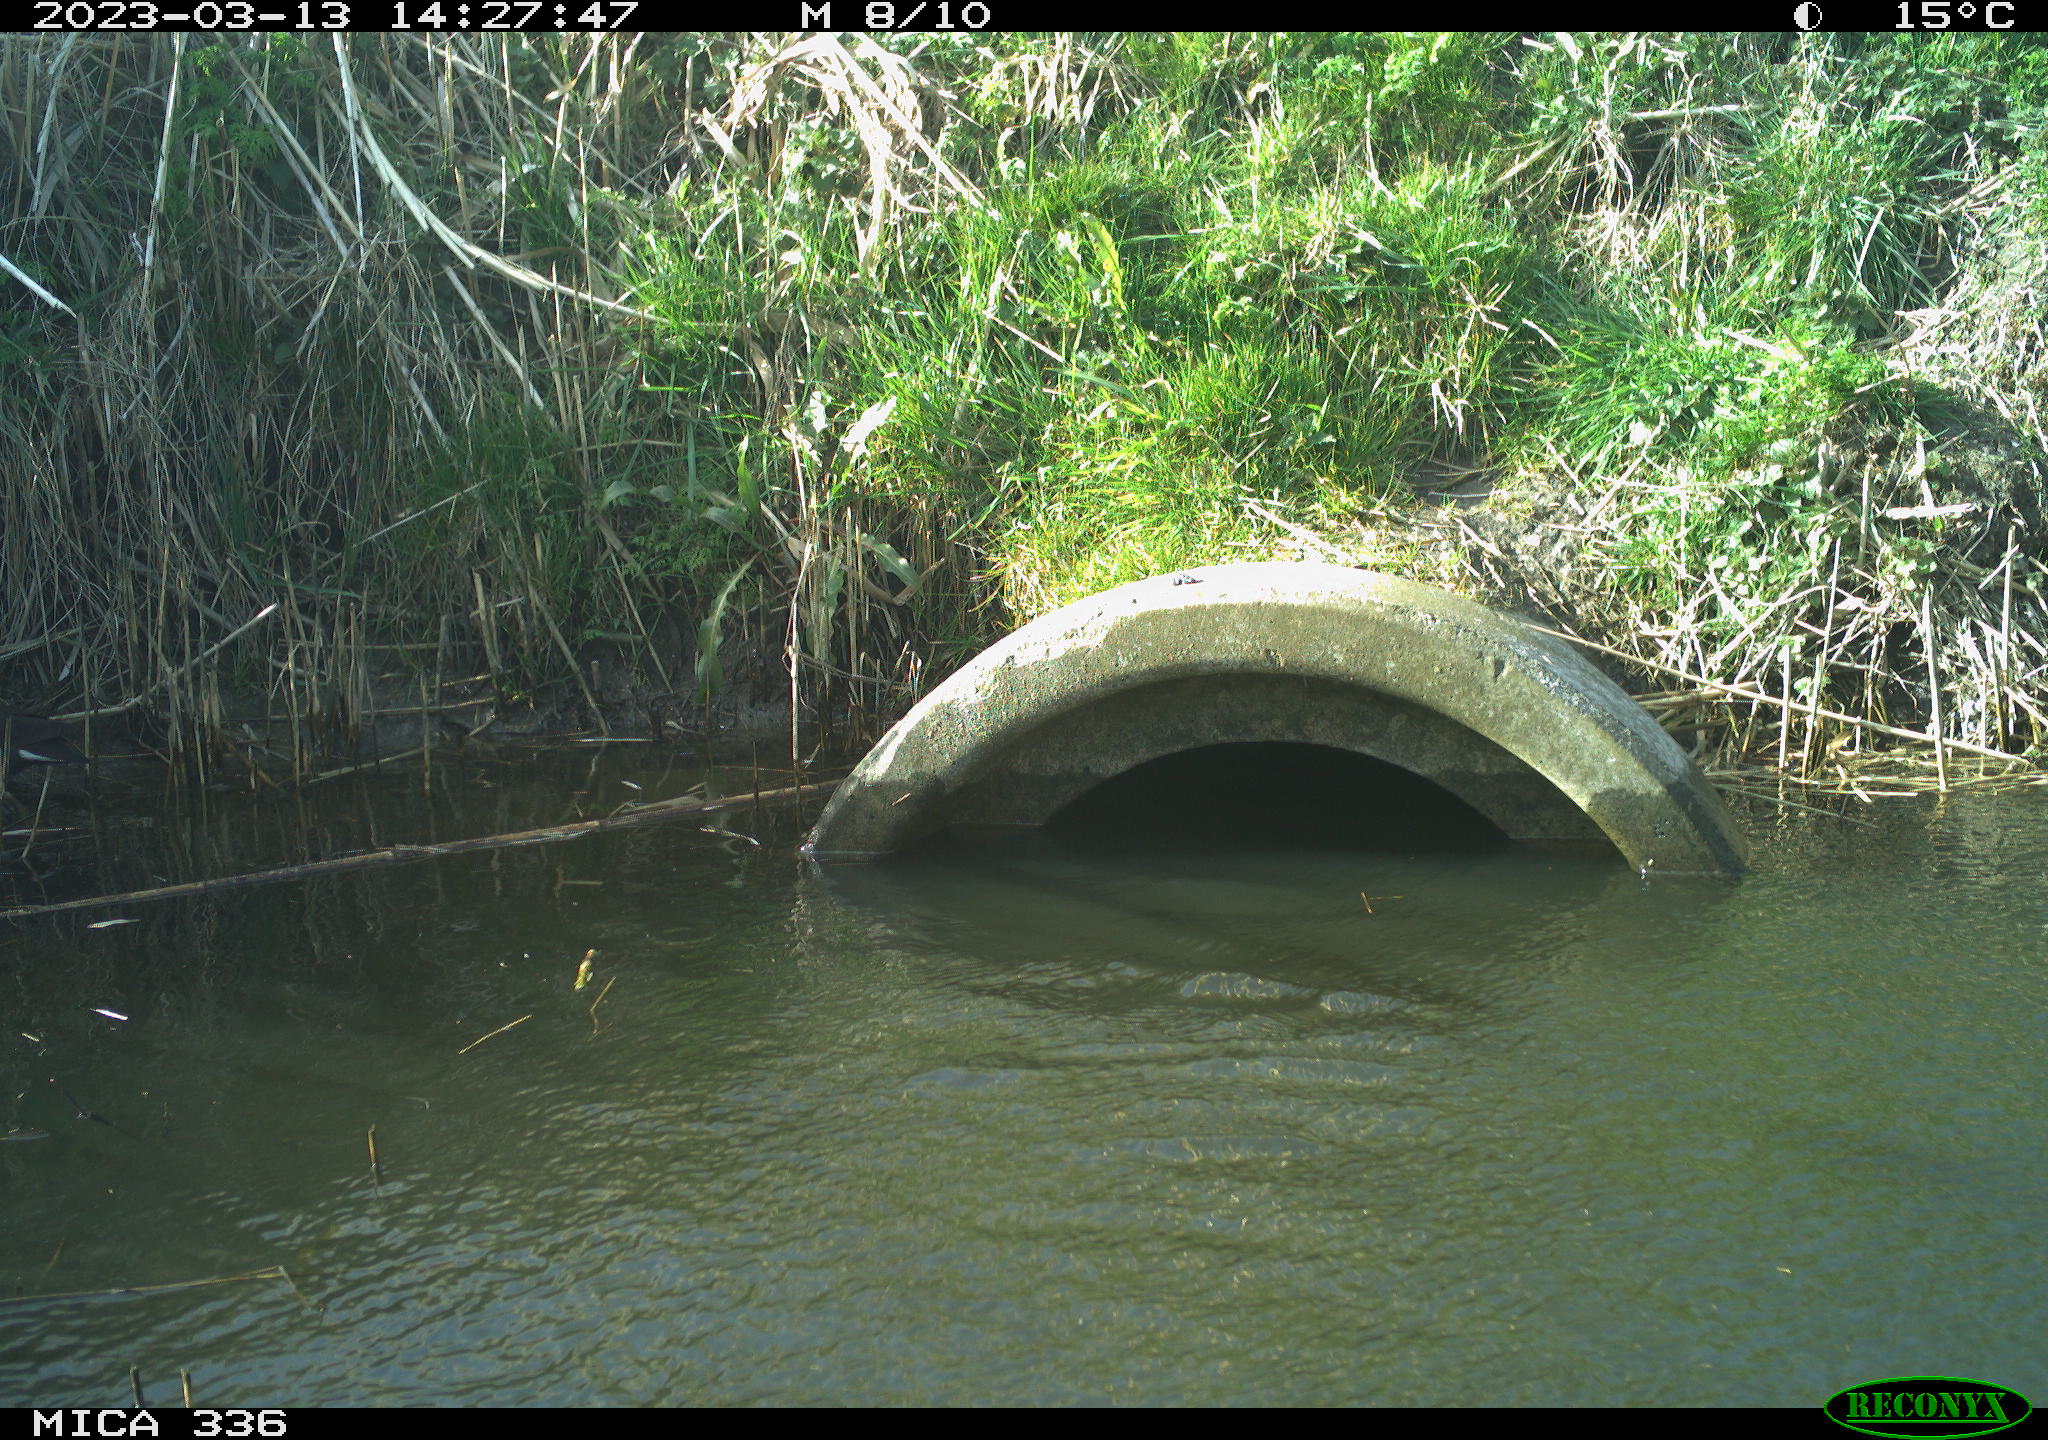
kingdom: Animalia
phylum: Chordata
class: Aves
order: Gruiformes
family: Rallidae
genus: Gallinula
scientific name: Gallinula chloropus
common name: Common moorhen
